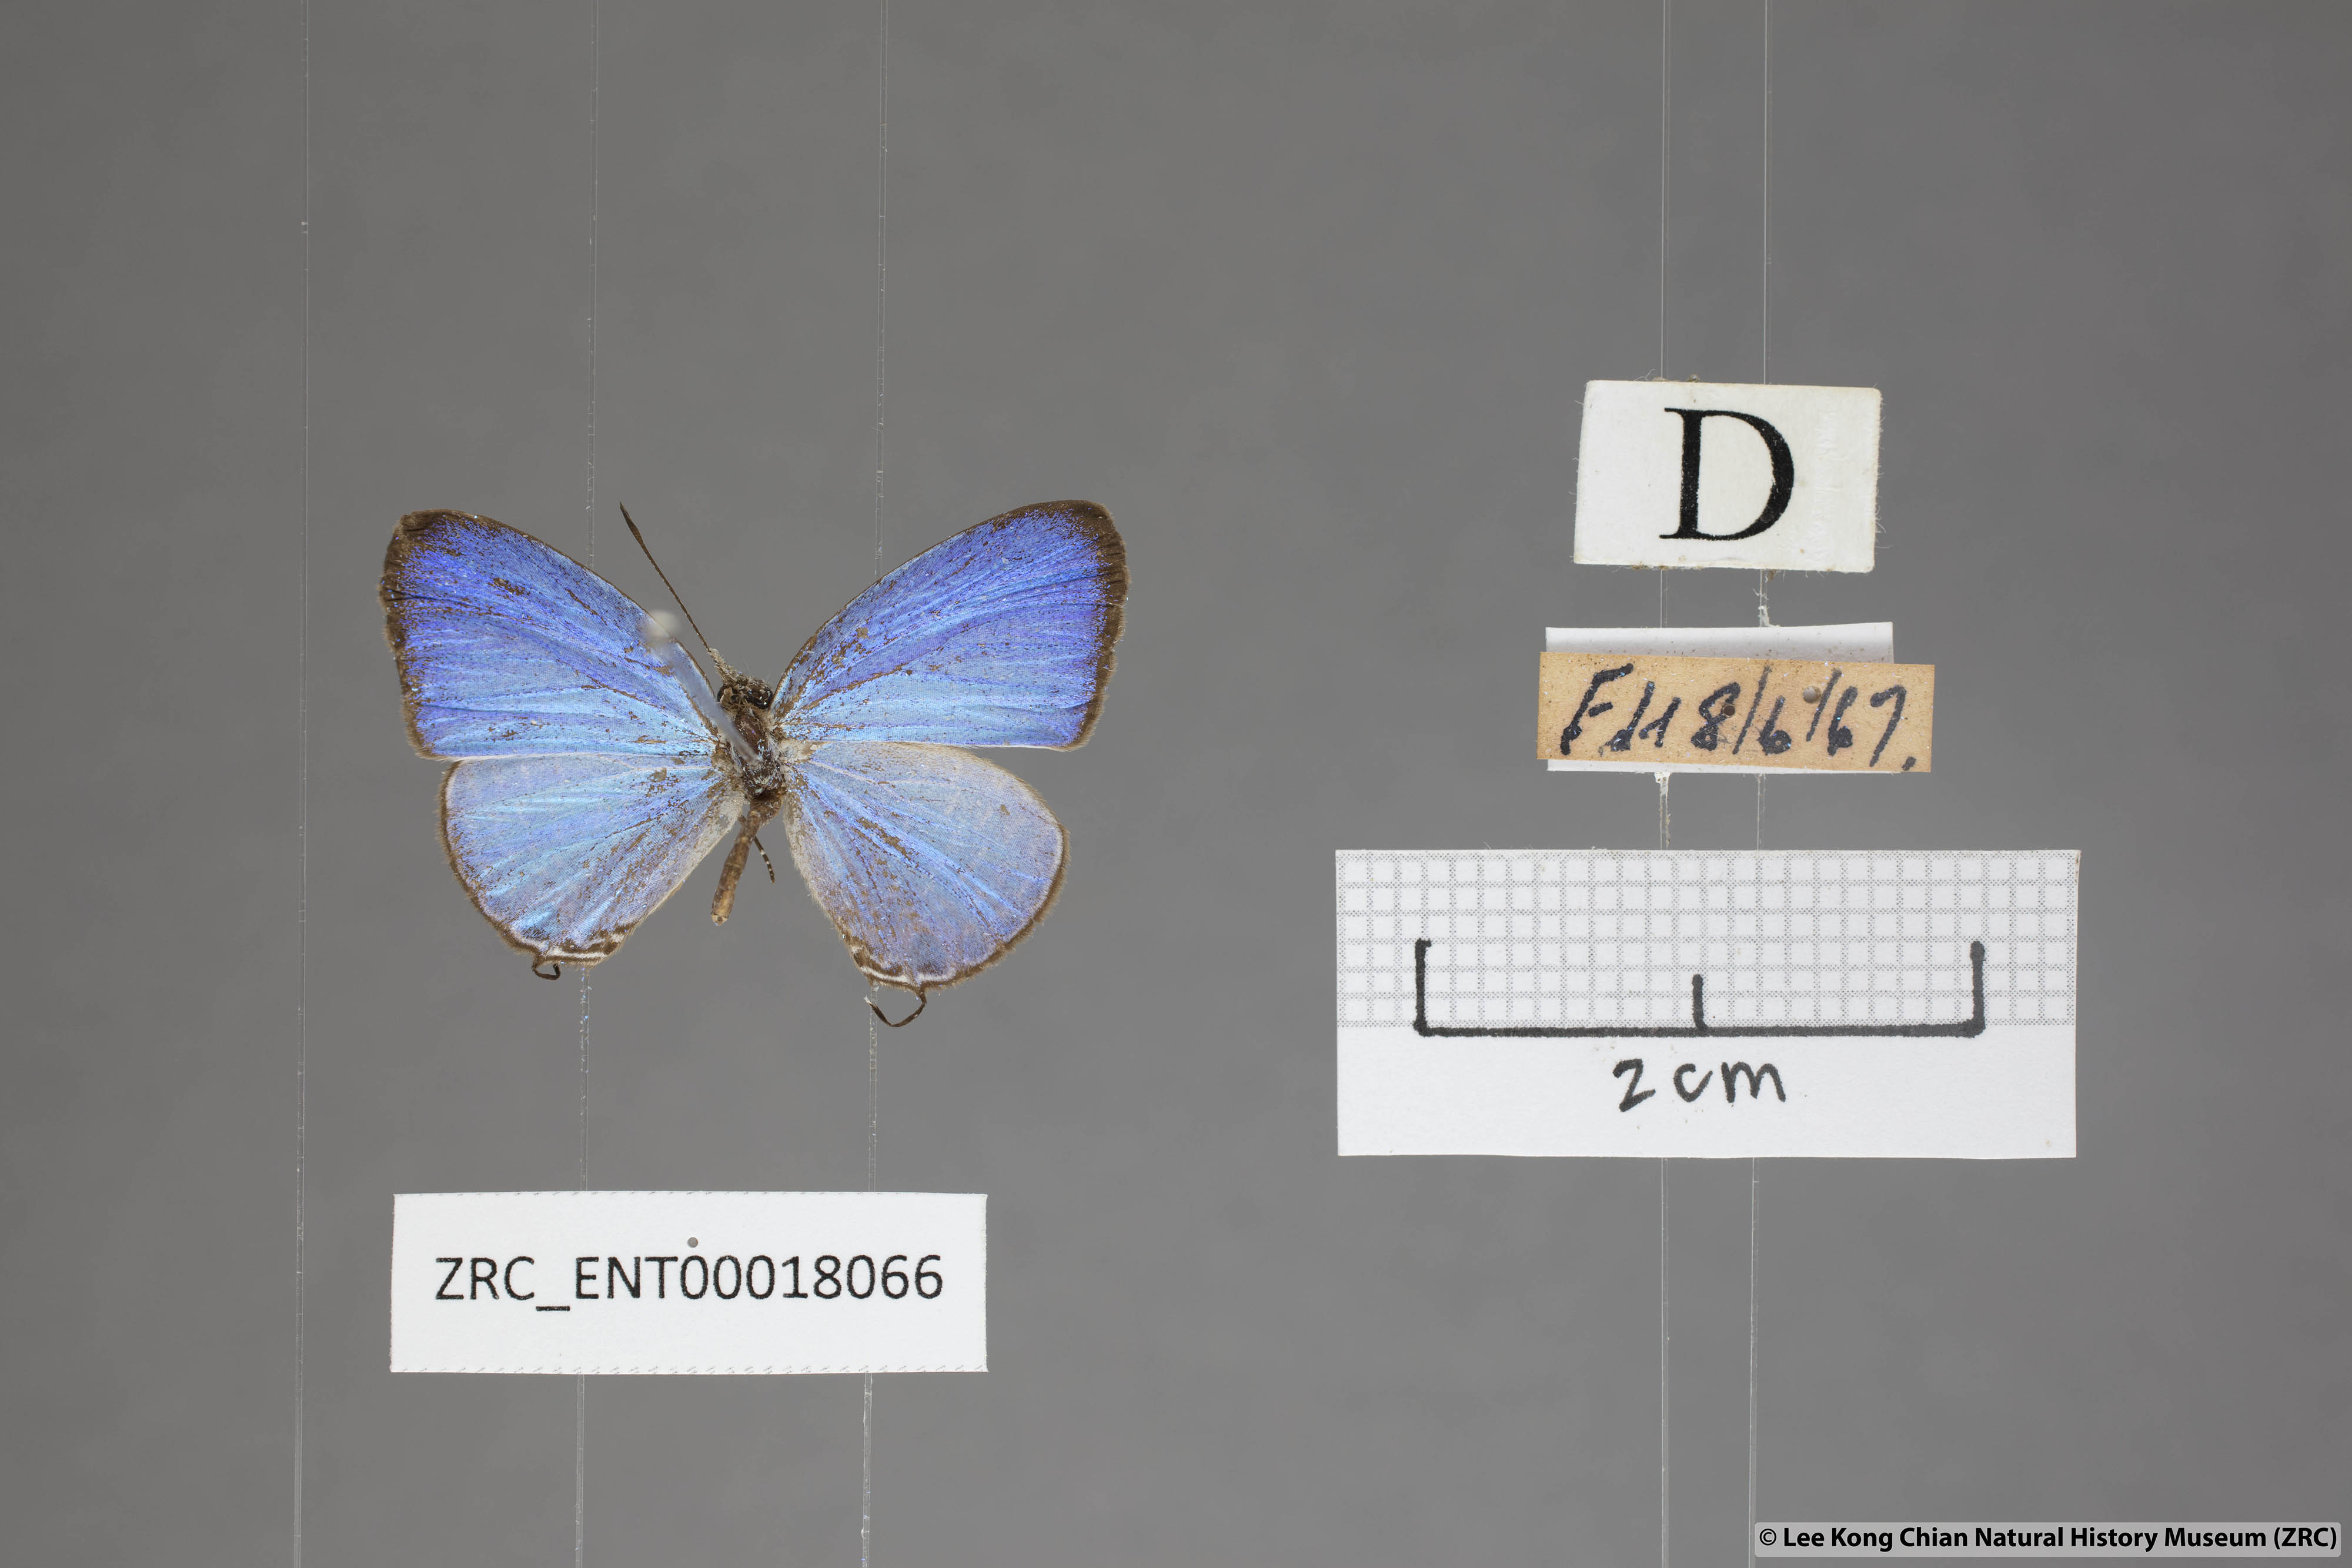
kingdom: Animalia
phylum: Arthropoda
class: Insecta
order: Lepidoptera
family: Lycaenidae
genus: Jamides
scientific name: Jamides caerulea
